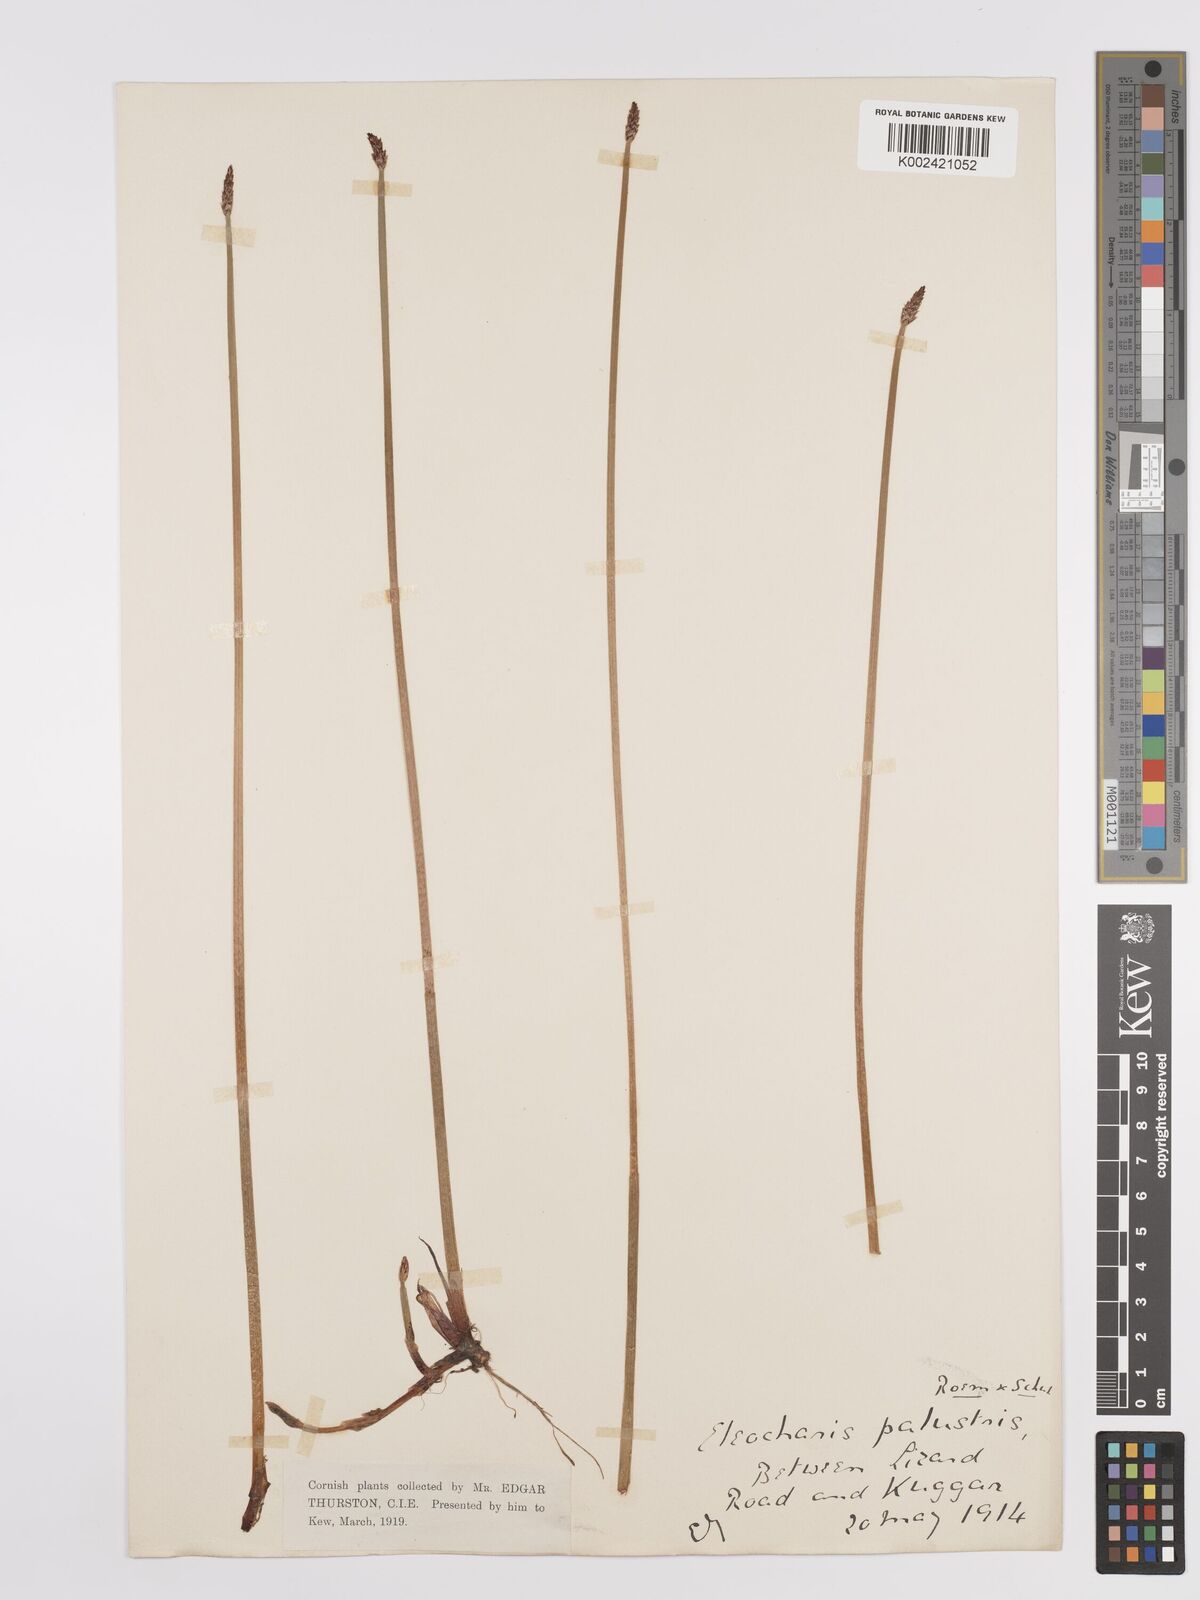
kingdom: Plantae
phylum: Tracheophyta
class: Liliopsida
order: Poales
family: Cyperaceae
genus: Eleocharis
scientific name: Eleocharis palustris
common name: Common spike-rush
